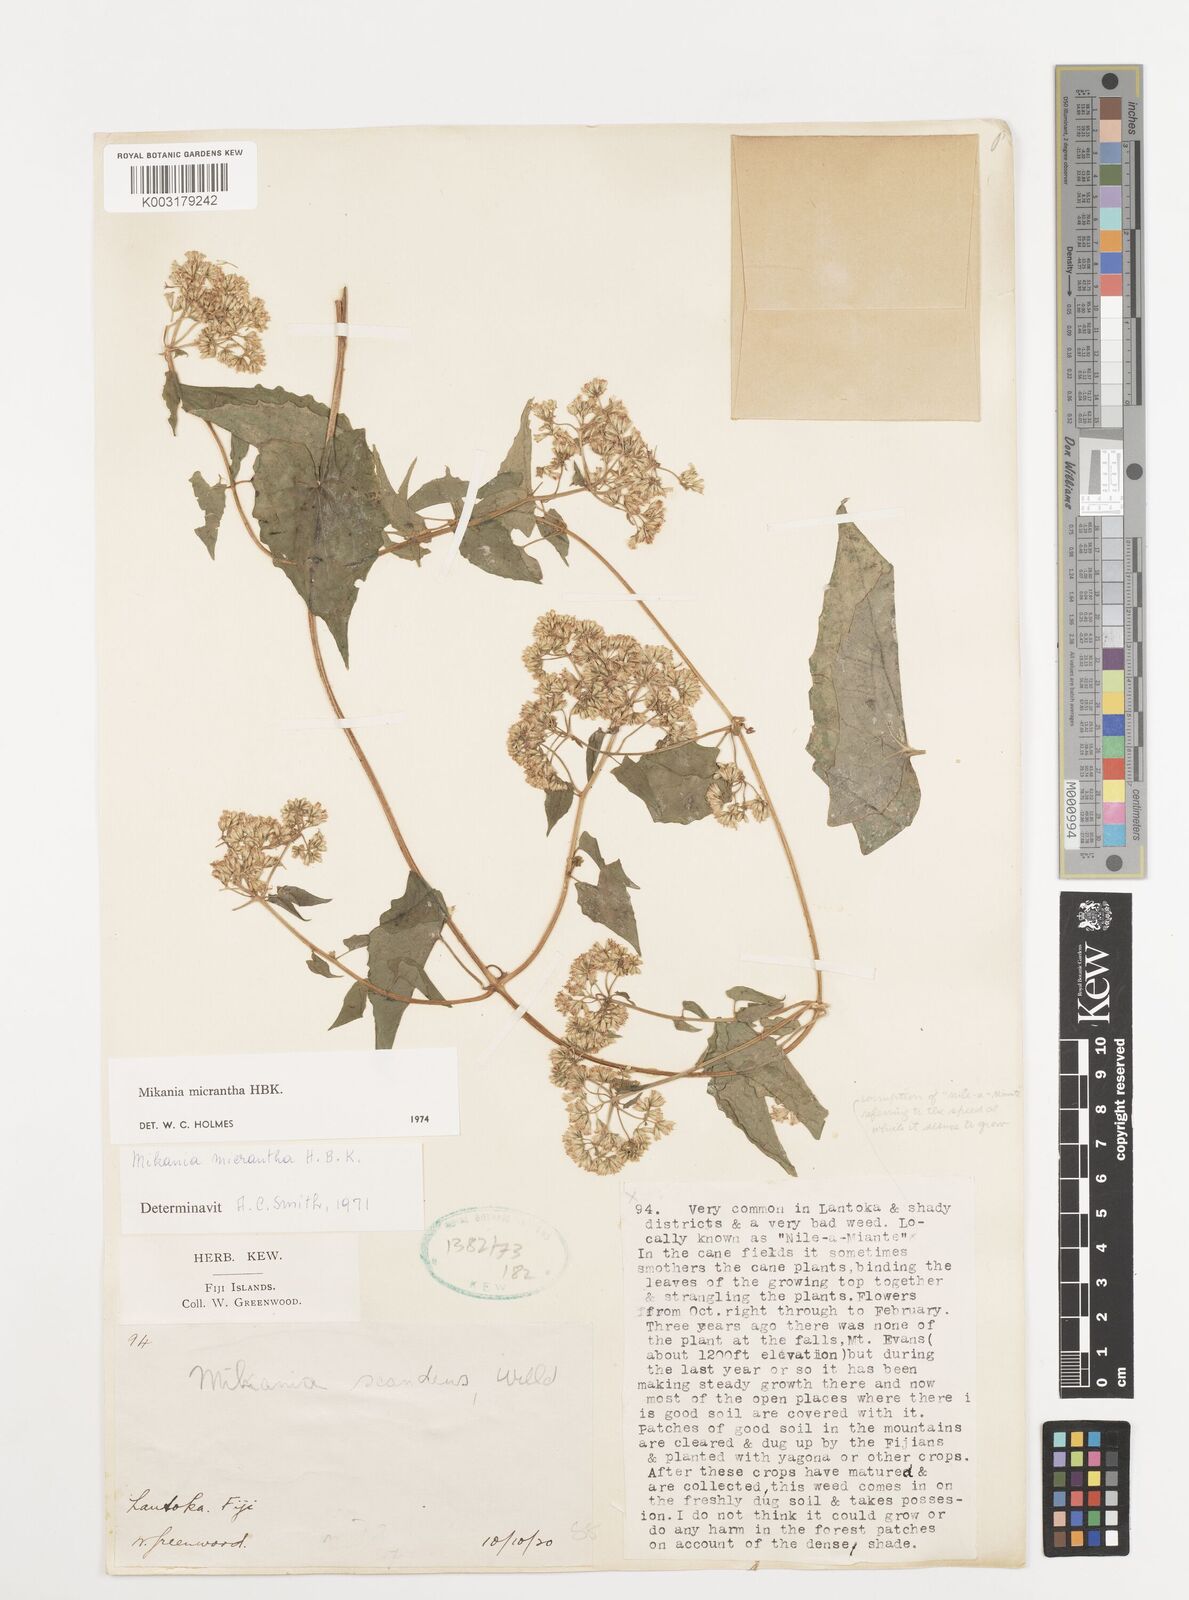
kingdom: Plantae
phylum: Tracheophyta
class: Magnoliopsida
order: Asterales
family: Asteraceae
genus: Mikania
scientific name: Mikania micrantha
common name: Mile-a-minute
